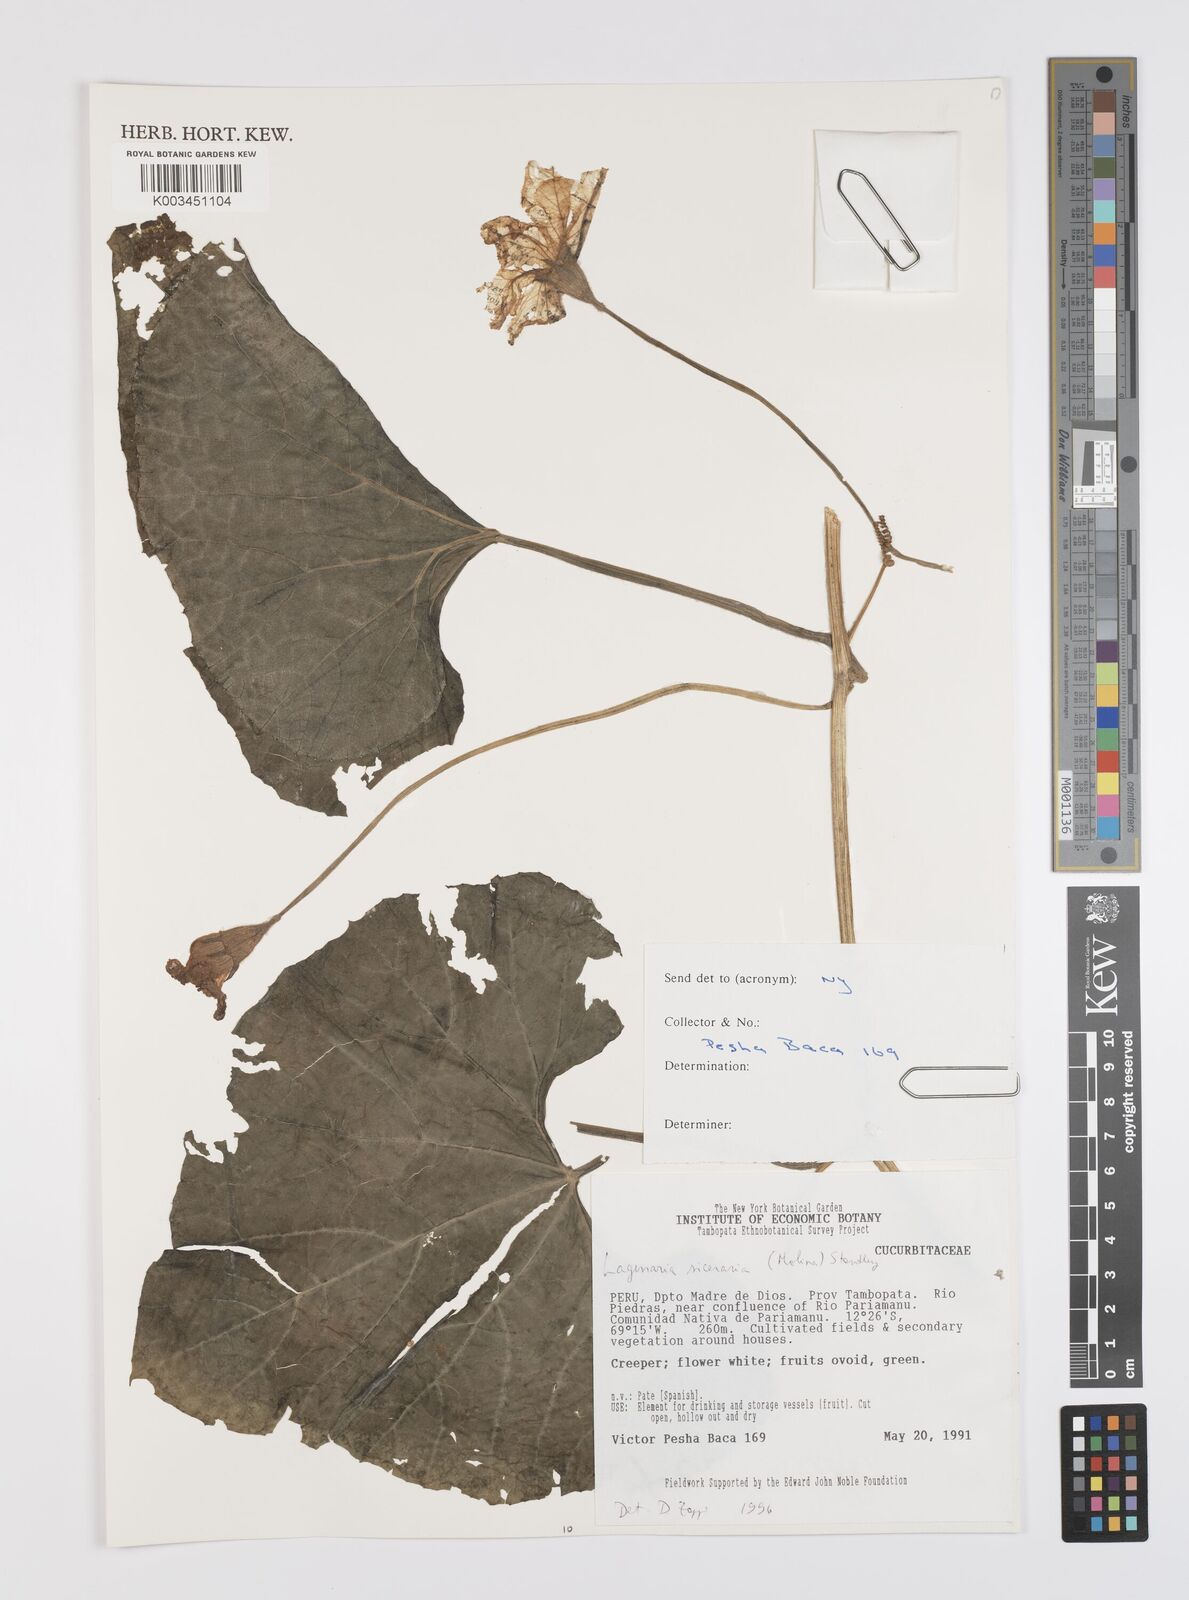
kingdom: Plantae
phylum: Tracheophyta
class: Magnoliopsida
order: Cucurbitales
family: Cucurbitaceae
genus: Lagenaria
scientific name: Lagenaria siceraria
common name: Bottle gourd
